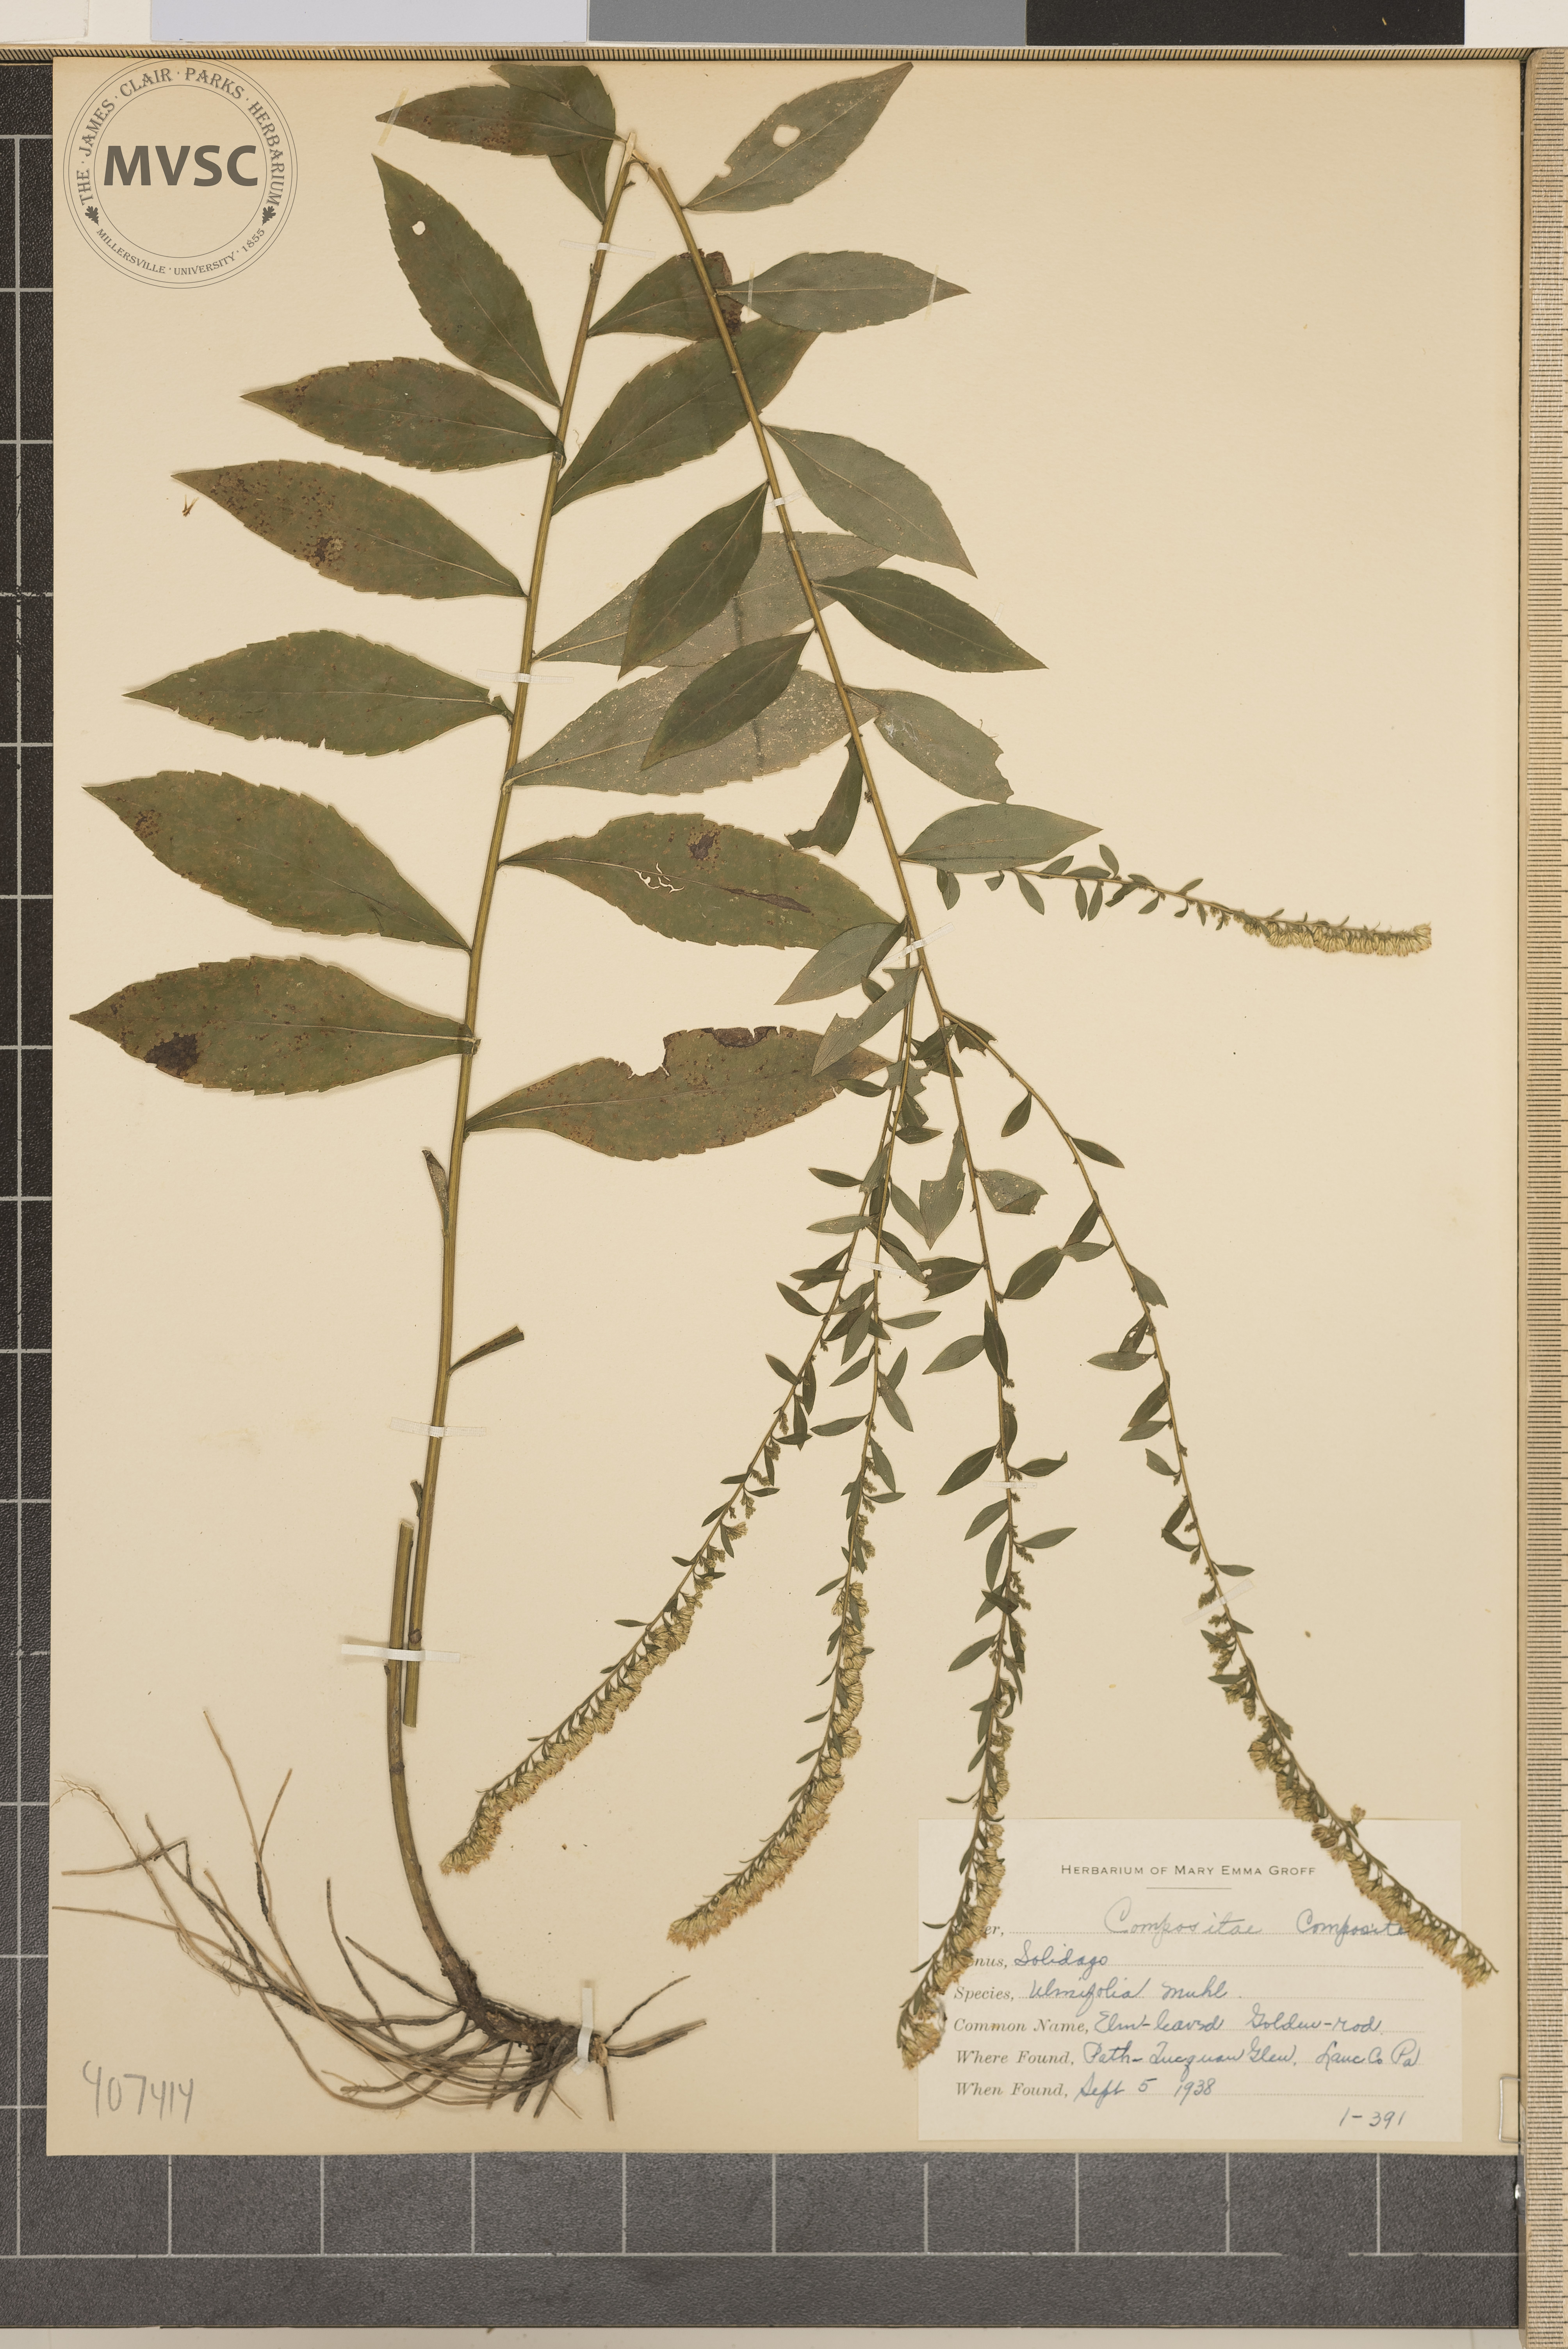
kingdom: Plantae
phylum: Tracheophyta
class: Magnoliopsida
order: Asterales
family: Asteraceae
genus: Solidago
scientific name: Solidago ulmifolia
